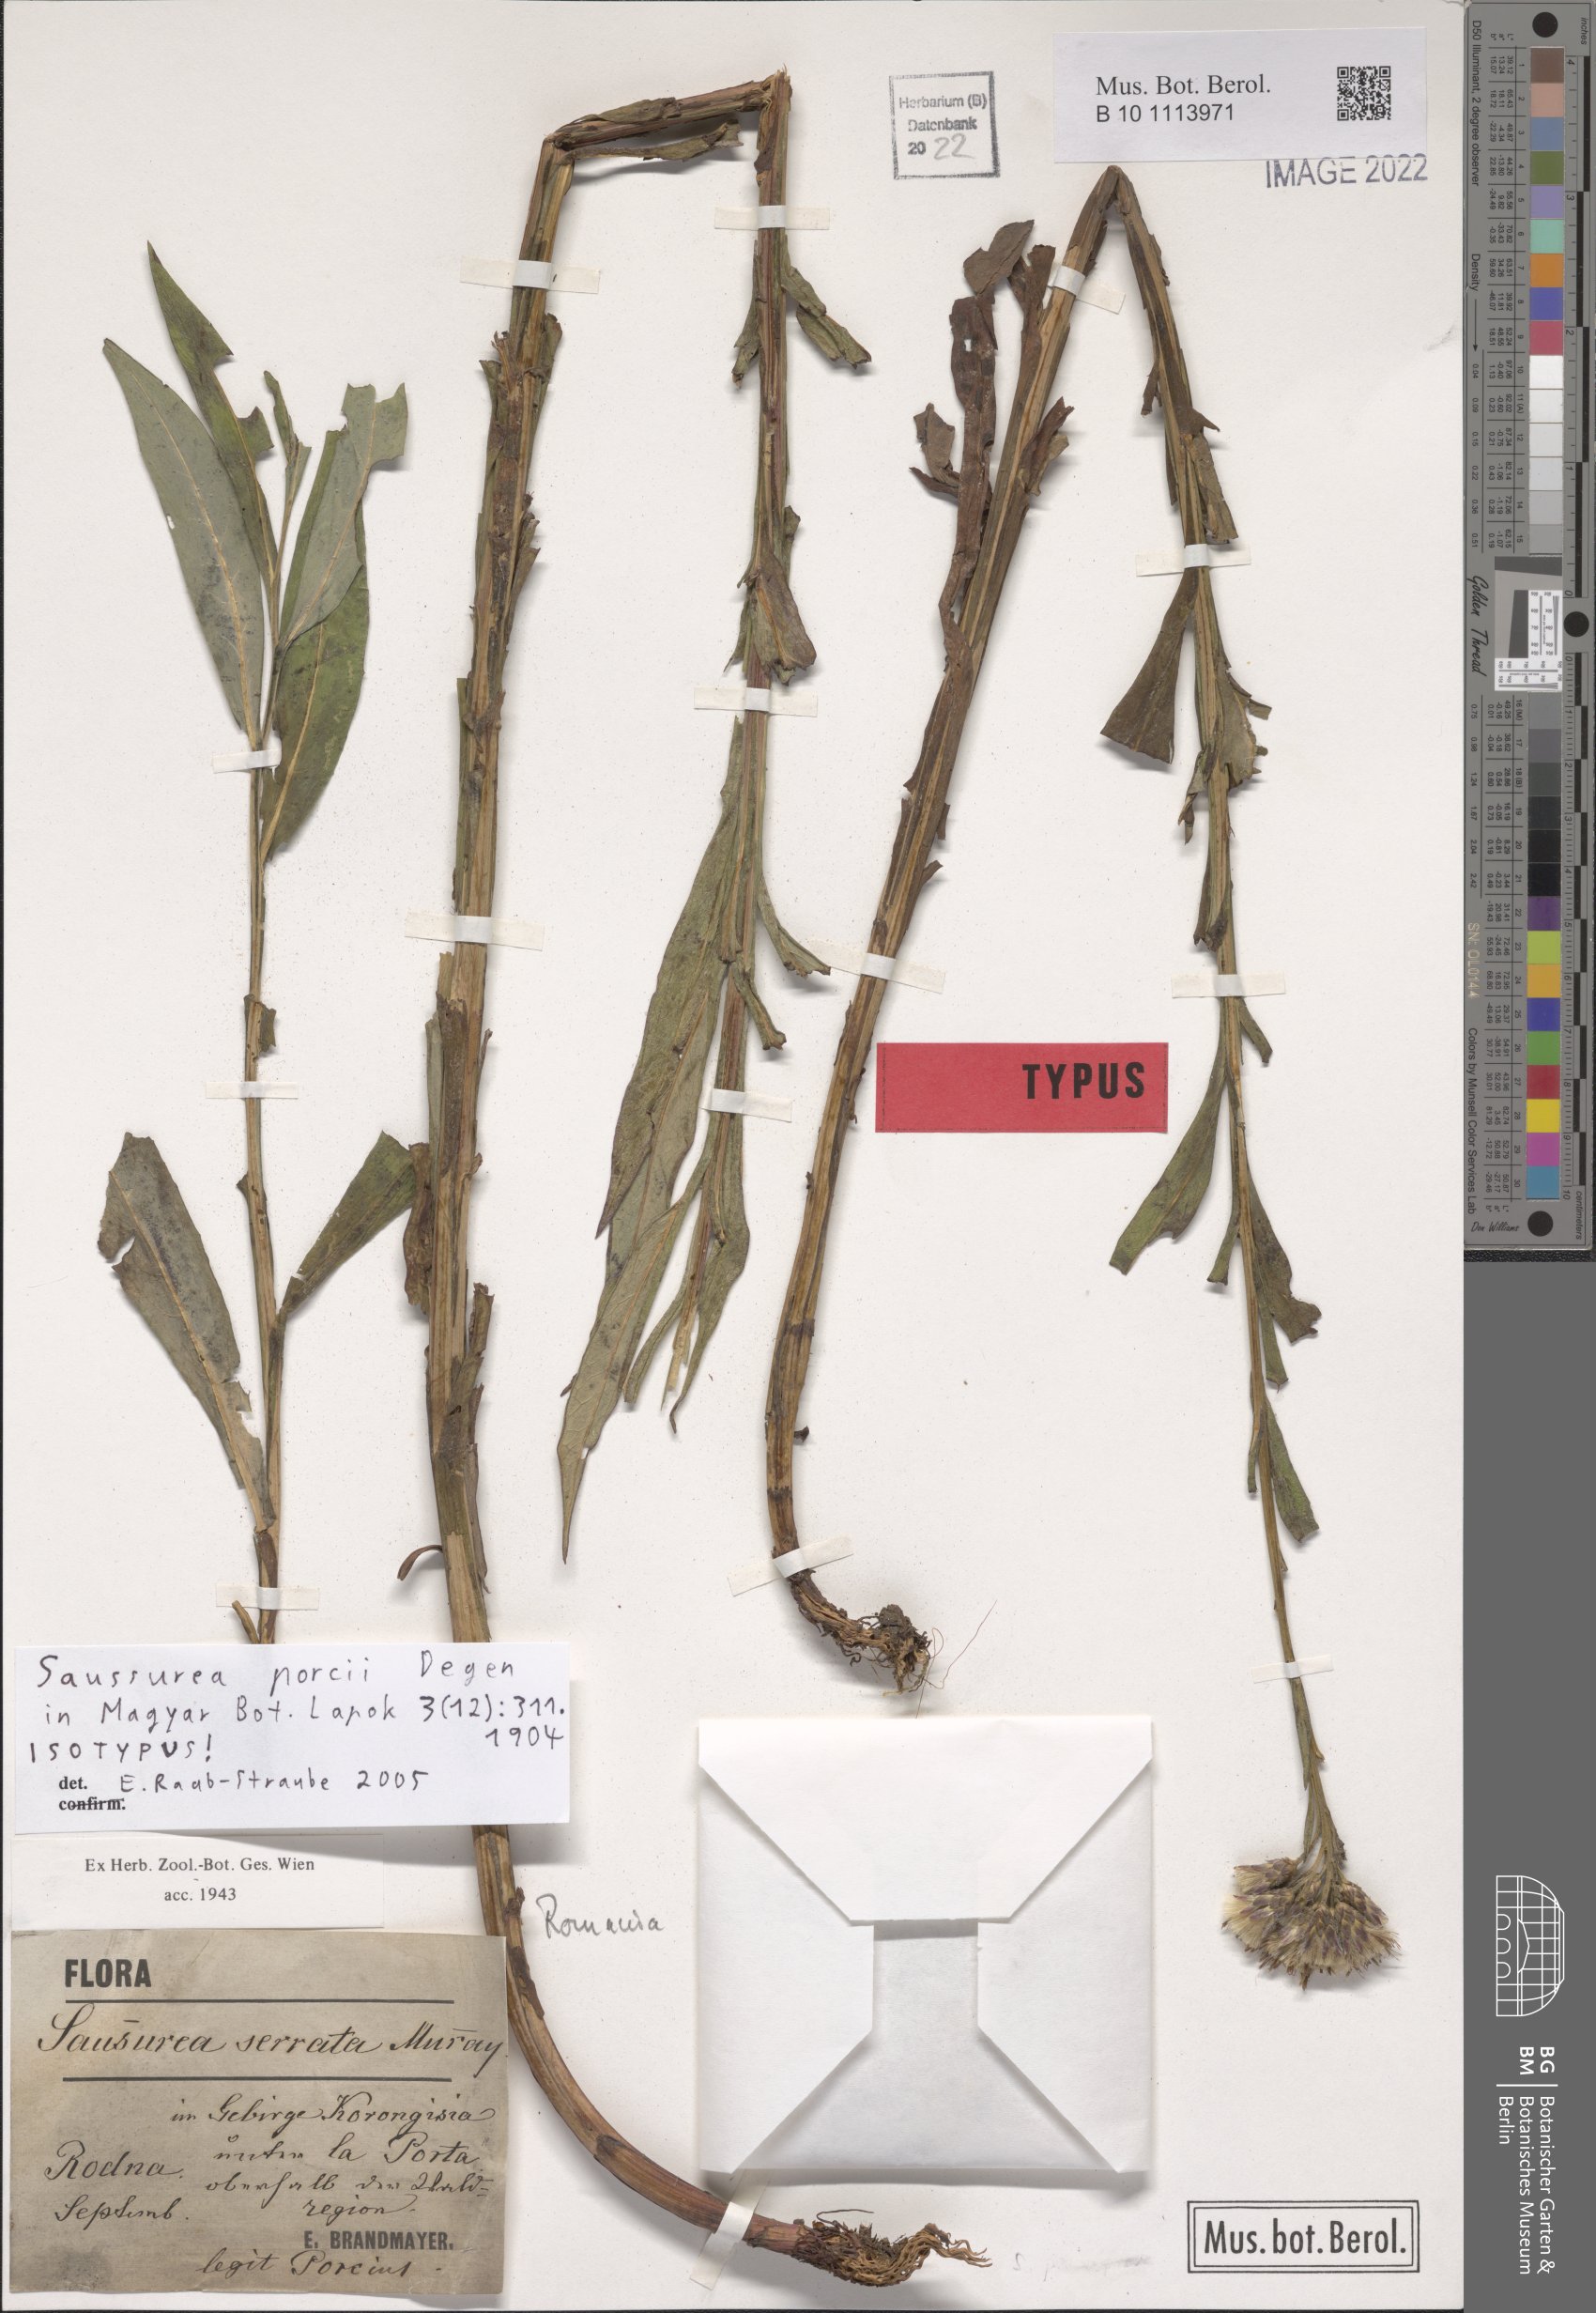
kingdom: Plantae
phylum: Tracheophyta
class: Magnoliopsida
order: Asterales
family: Asteraceae
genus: Saussurea
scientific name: Saussurea porcii
